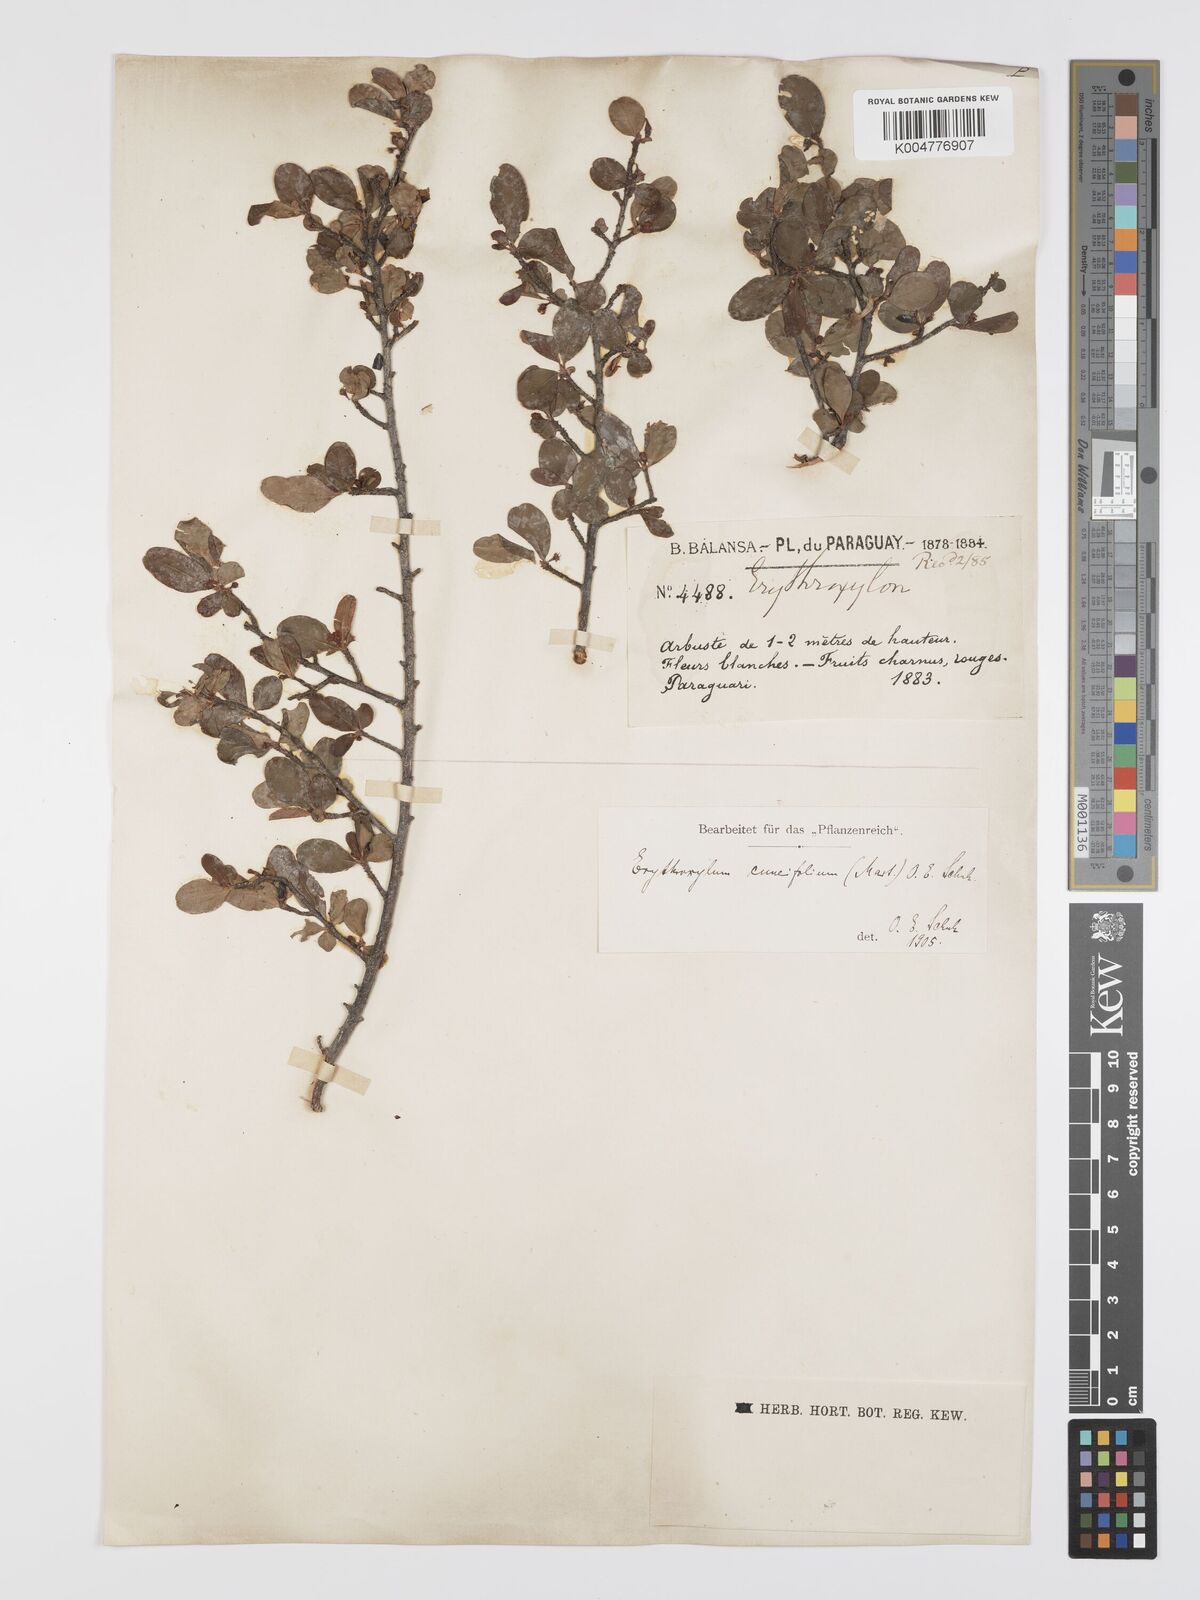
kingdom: Plantae
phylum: Tracheophyta
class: Magnoliopsida
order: Malpighiales
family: Erythroxylaceae
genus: Erythroxylum
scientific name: Erythroxylum cuneifolium
